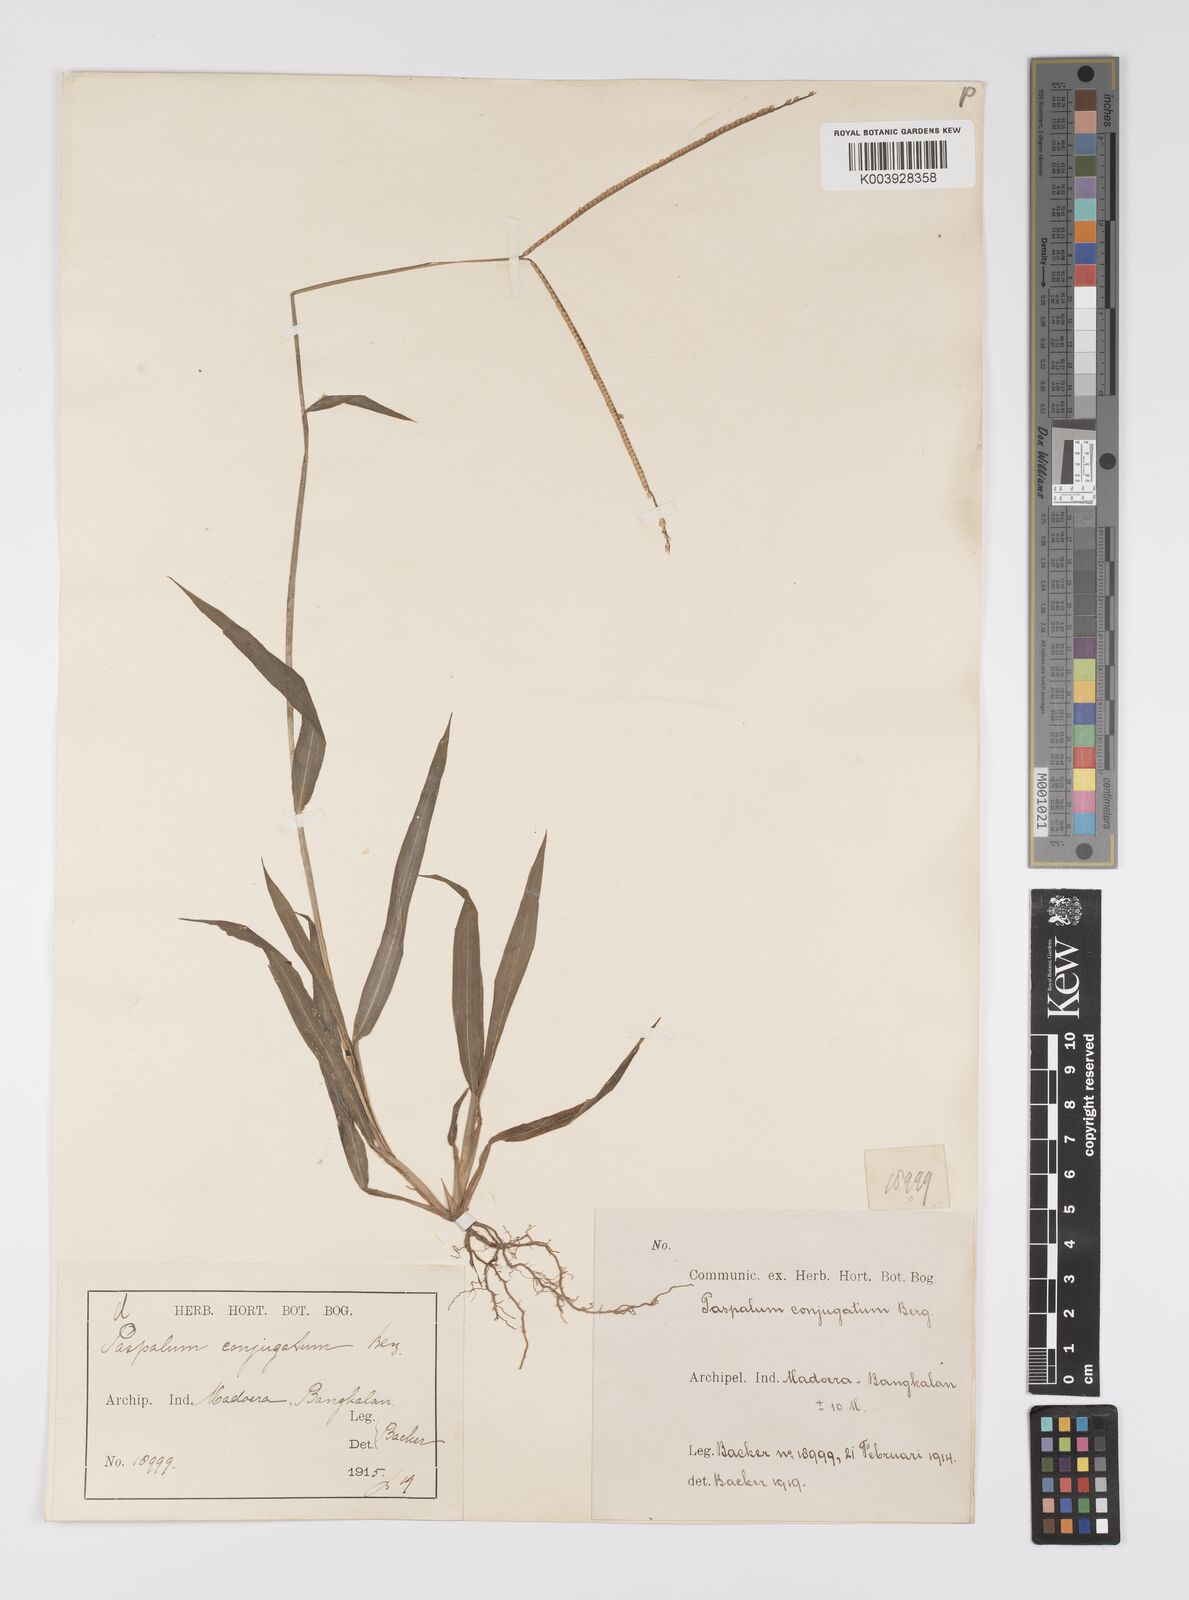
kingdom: Plantae
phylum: Tracheophyta
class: Liliopsida
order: Poales
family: Poaceae
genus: Paspalum
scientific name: Paspalum conjugatum
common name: Hilograss
